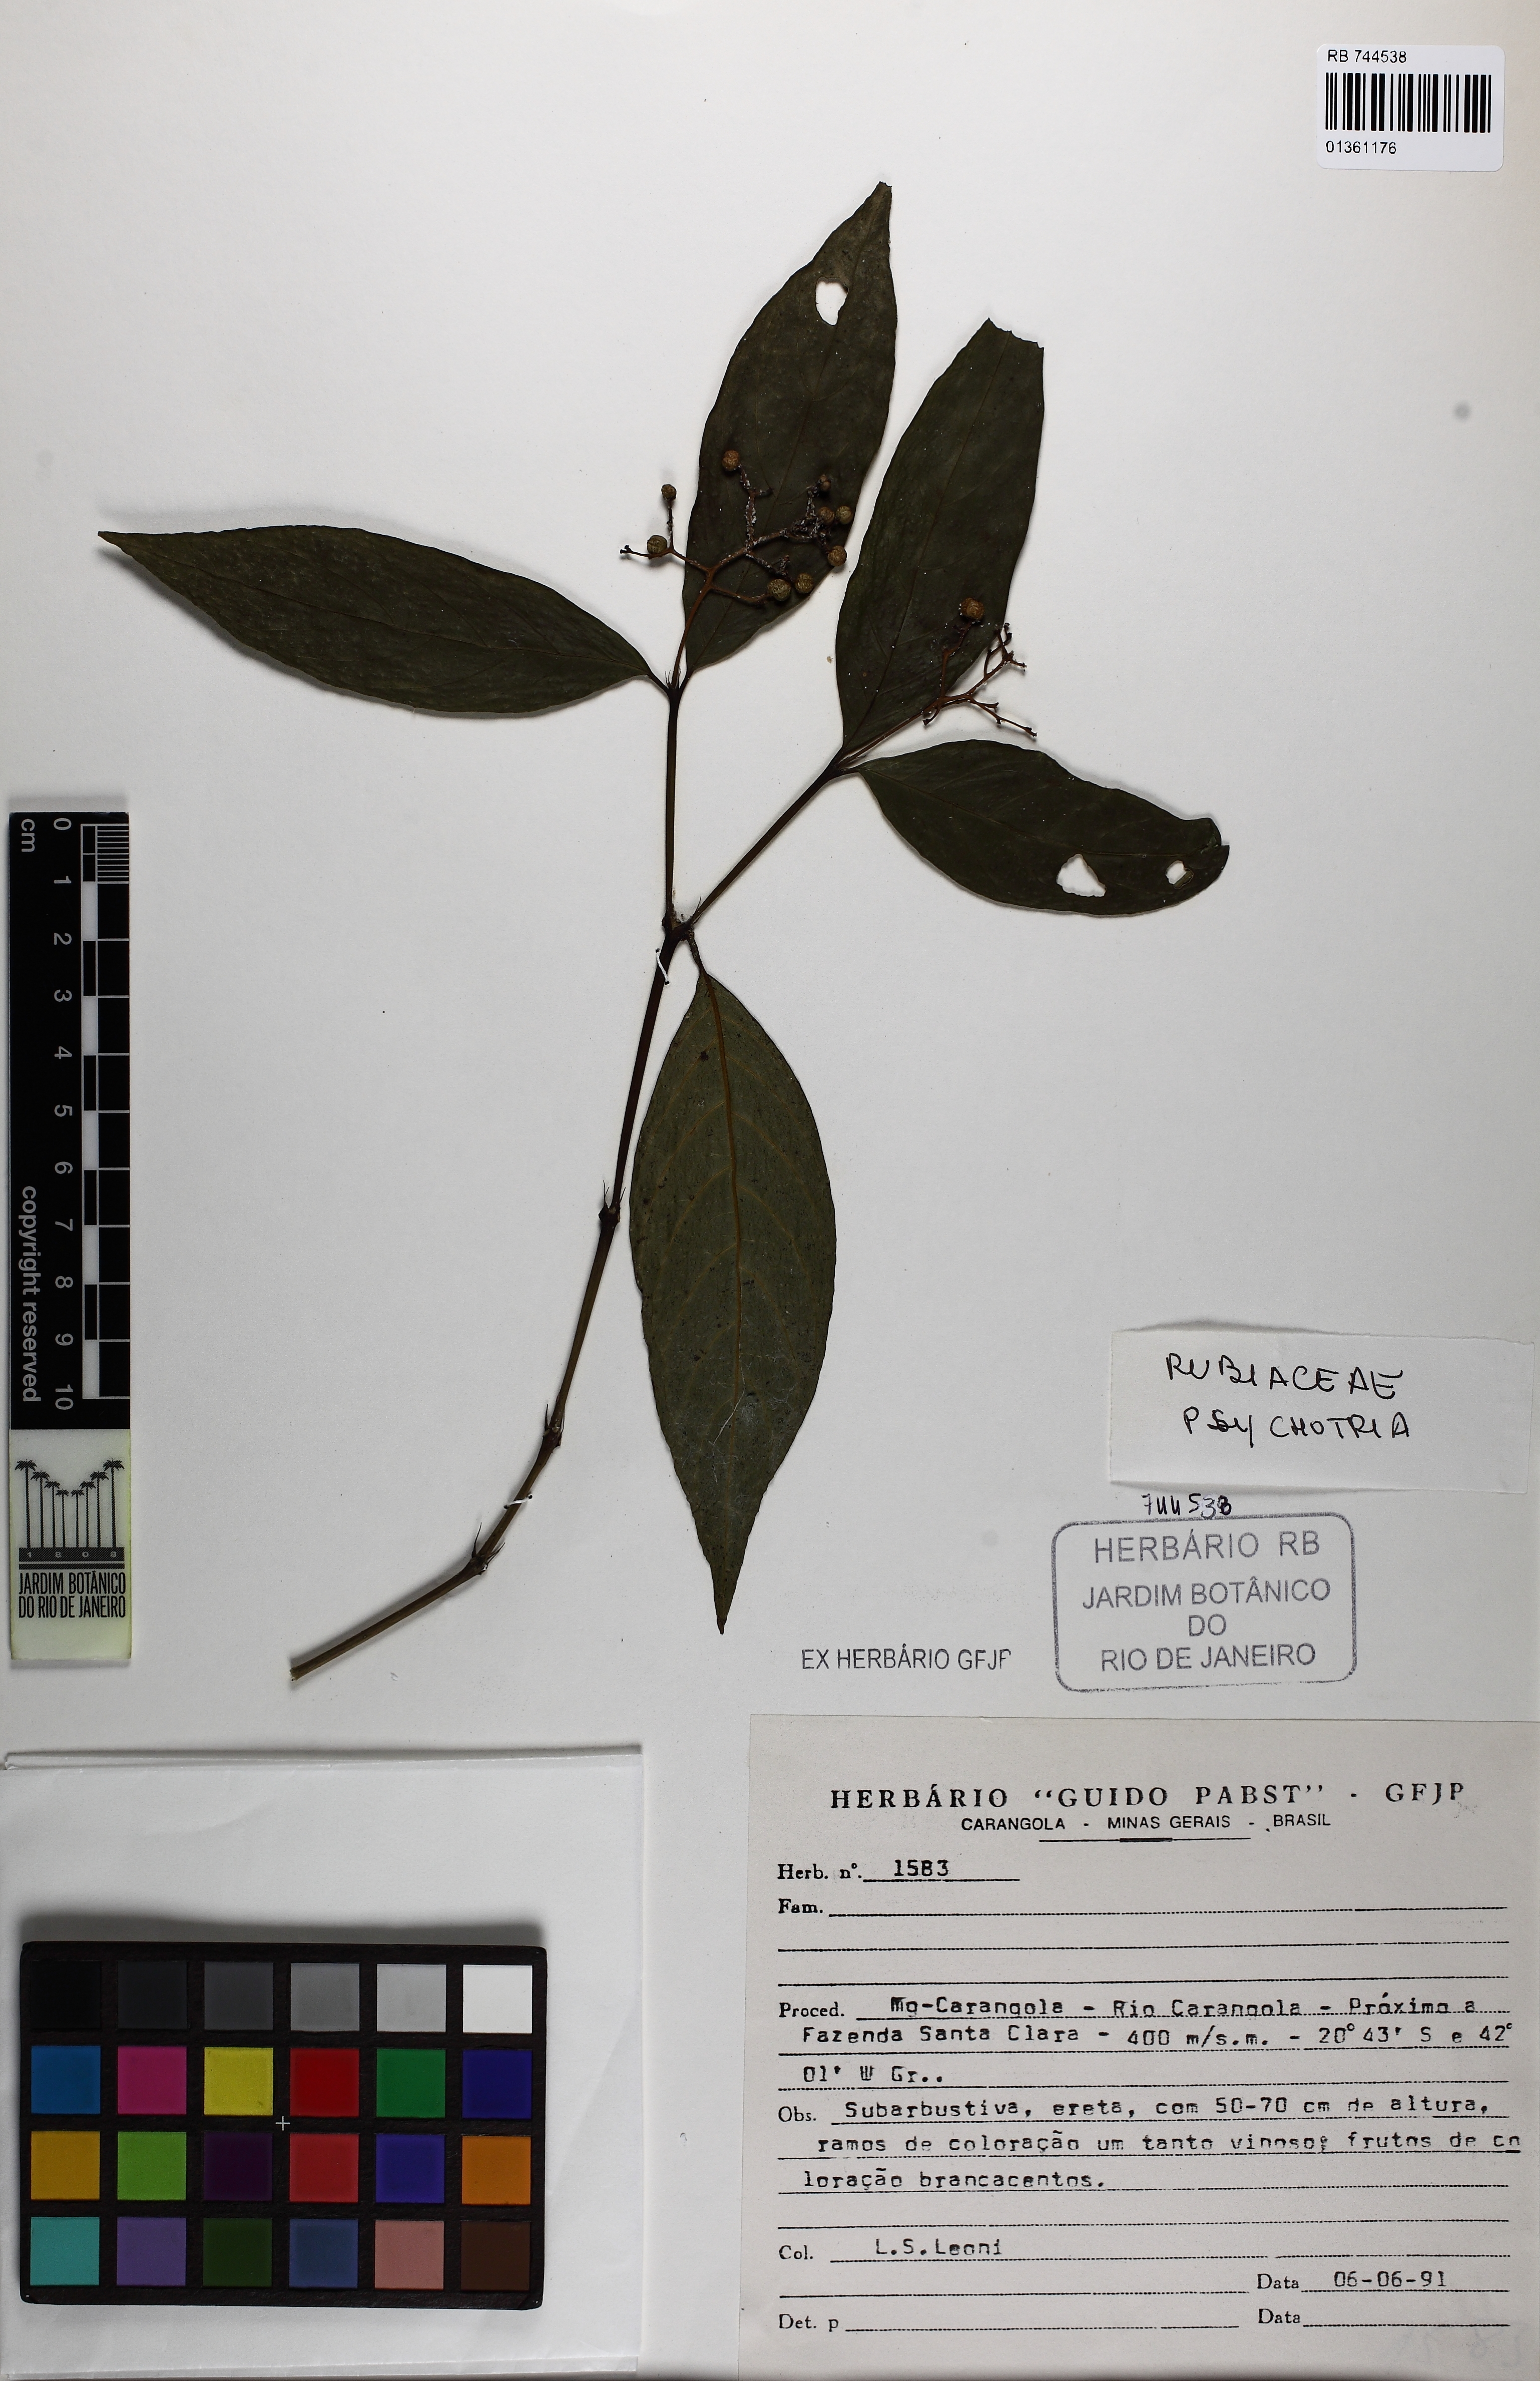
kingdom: Plantae
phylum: Tracheophyta
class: Magnoliopsida
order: Gentianales
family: Rubiaceae
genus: Palicourea
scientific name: Palicourea deflexa
